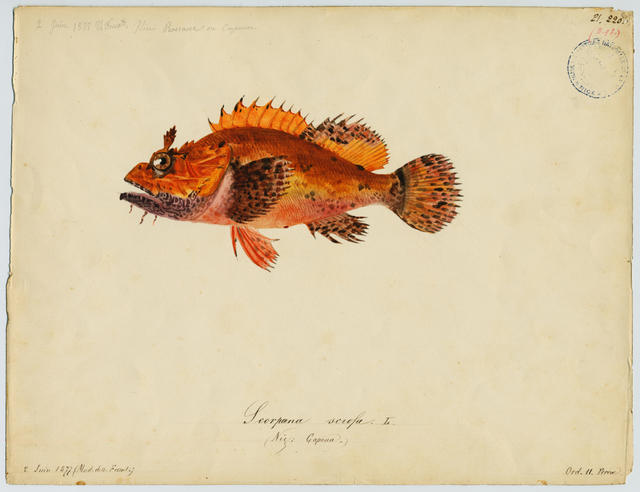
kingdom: Animalia
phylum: Chordata
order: Scorpaeniformes
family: Scorpaenidae
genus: Scorpaena
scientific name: Scorpaena scrofa
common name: Red scorpionfish
